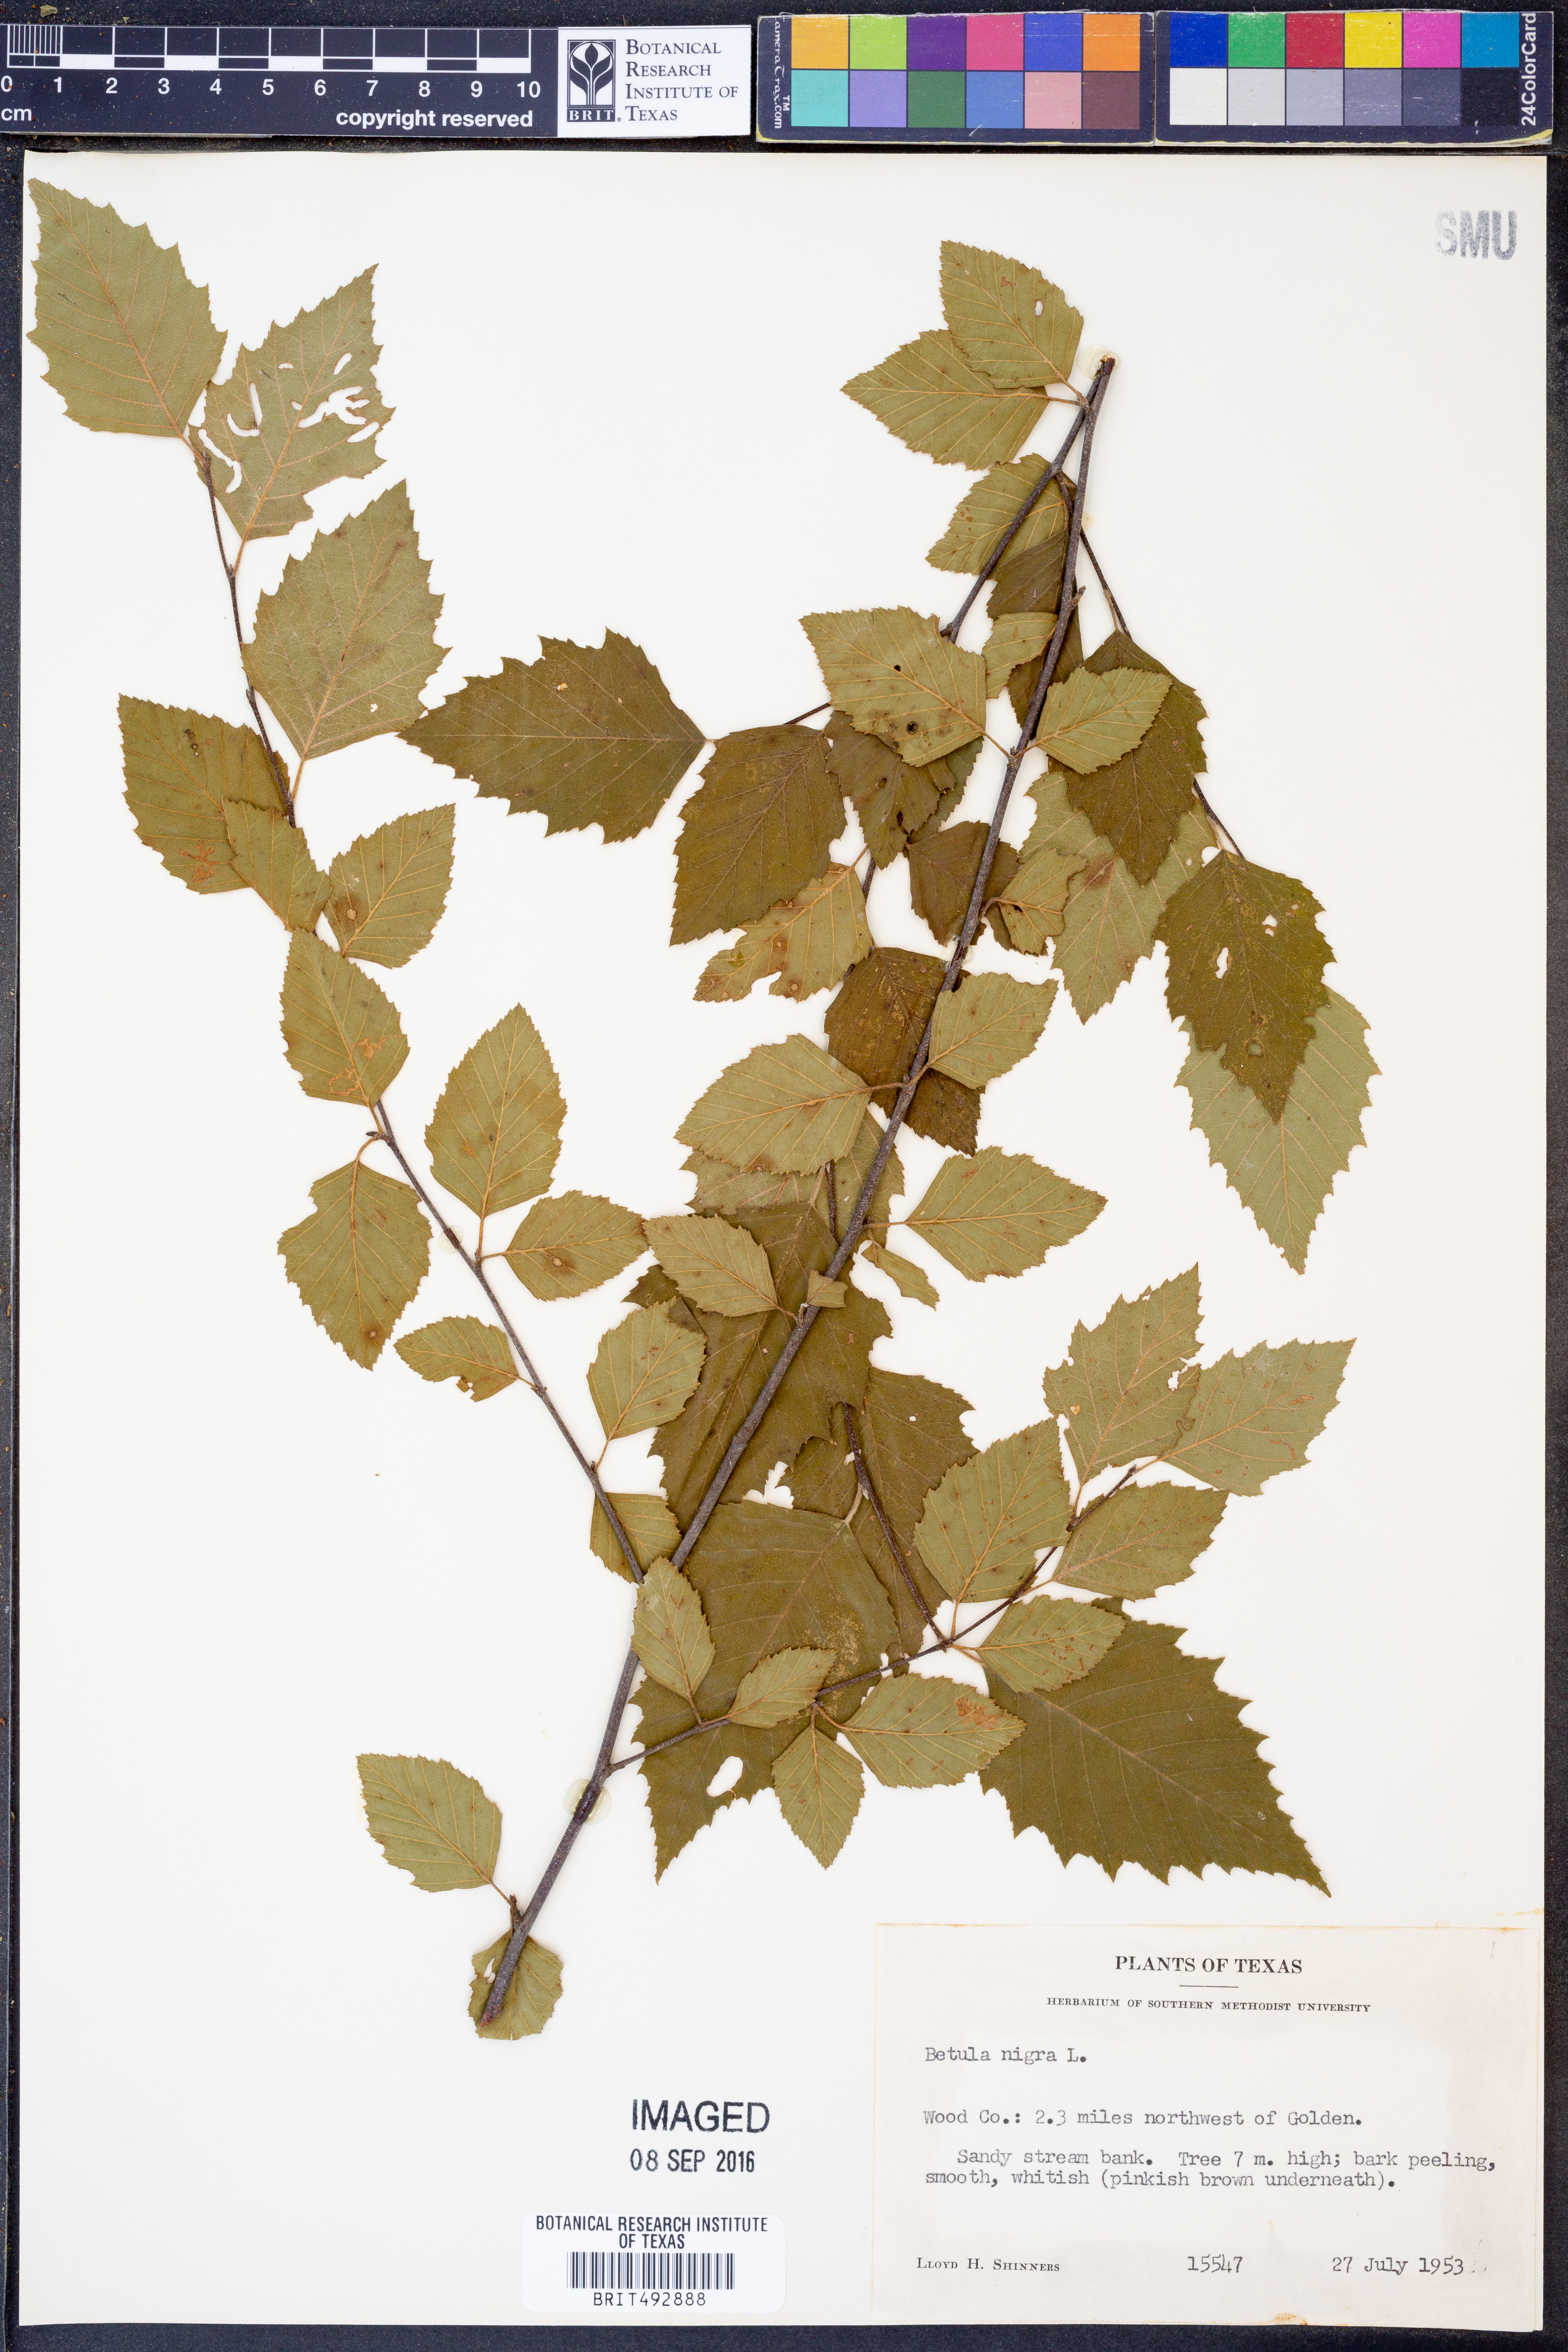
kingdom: Plantae
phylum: Tracheophyta
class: Magnoliopsida
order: Fagales
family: Betulaceae
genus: Betula
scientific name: Betula nigra
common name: Black birch
